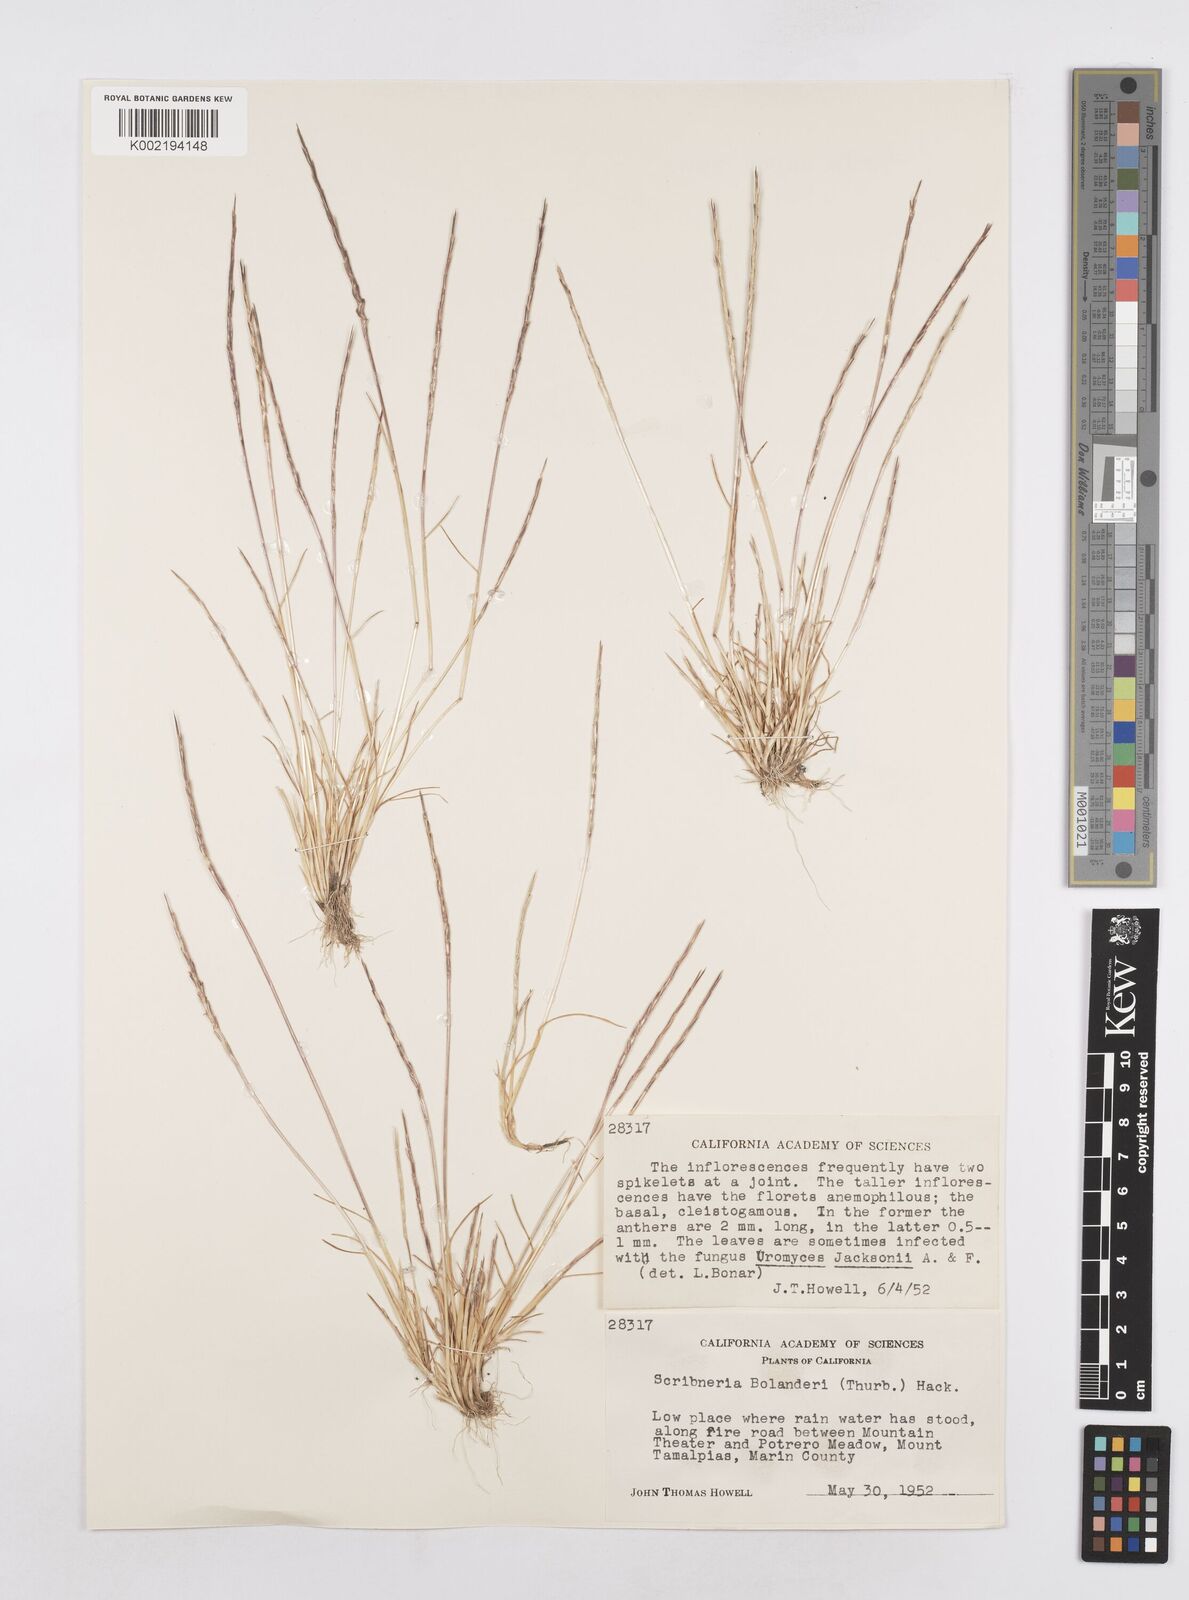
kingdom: Plantae
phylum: Tracheophyta
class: Liliopsida
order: Poales
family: Poaceae
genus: Deschampsia
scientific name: Deschampsia bolanderi
